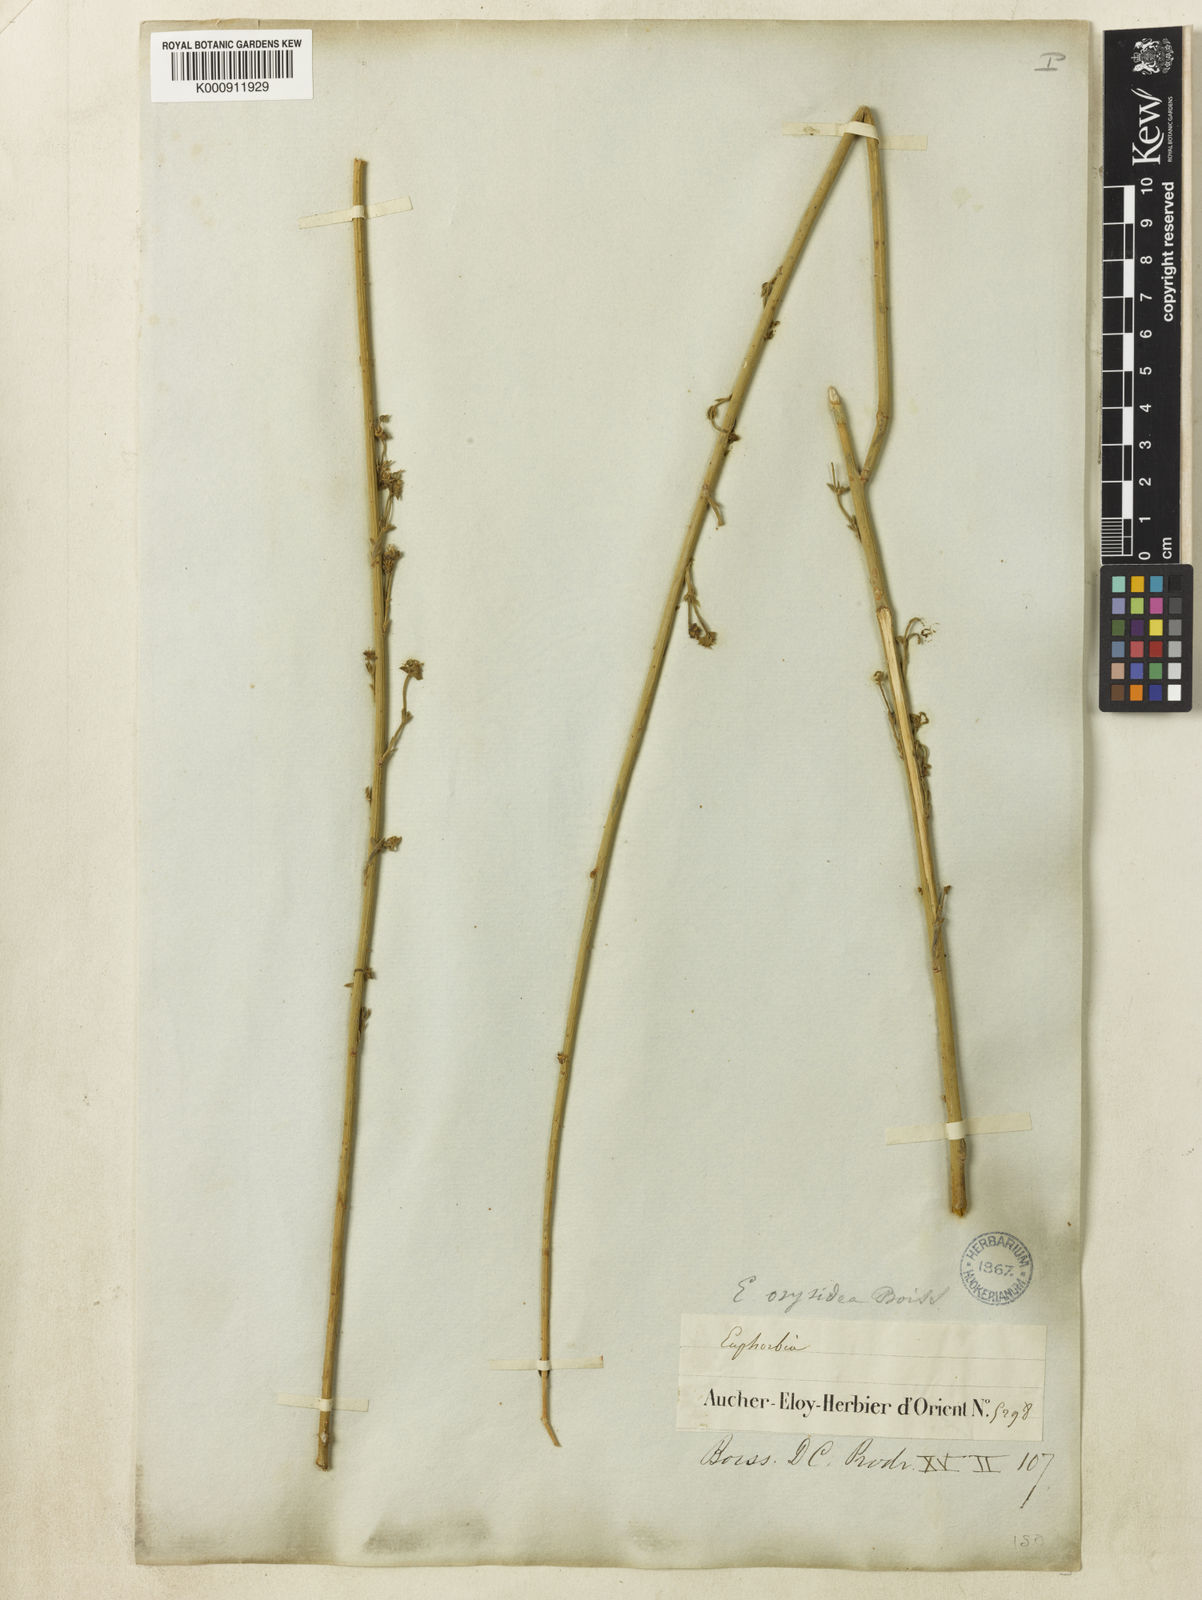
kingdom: Plantae
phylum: Tracheophyta
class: Magnoliopsida
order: Malpighiales
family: Euphorbiaceae
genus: Euphorbia
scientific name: Euphorbia osyridea
